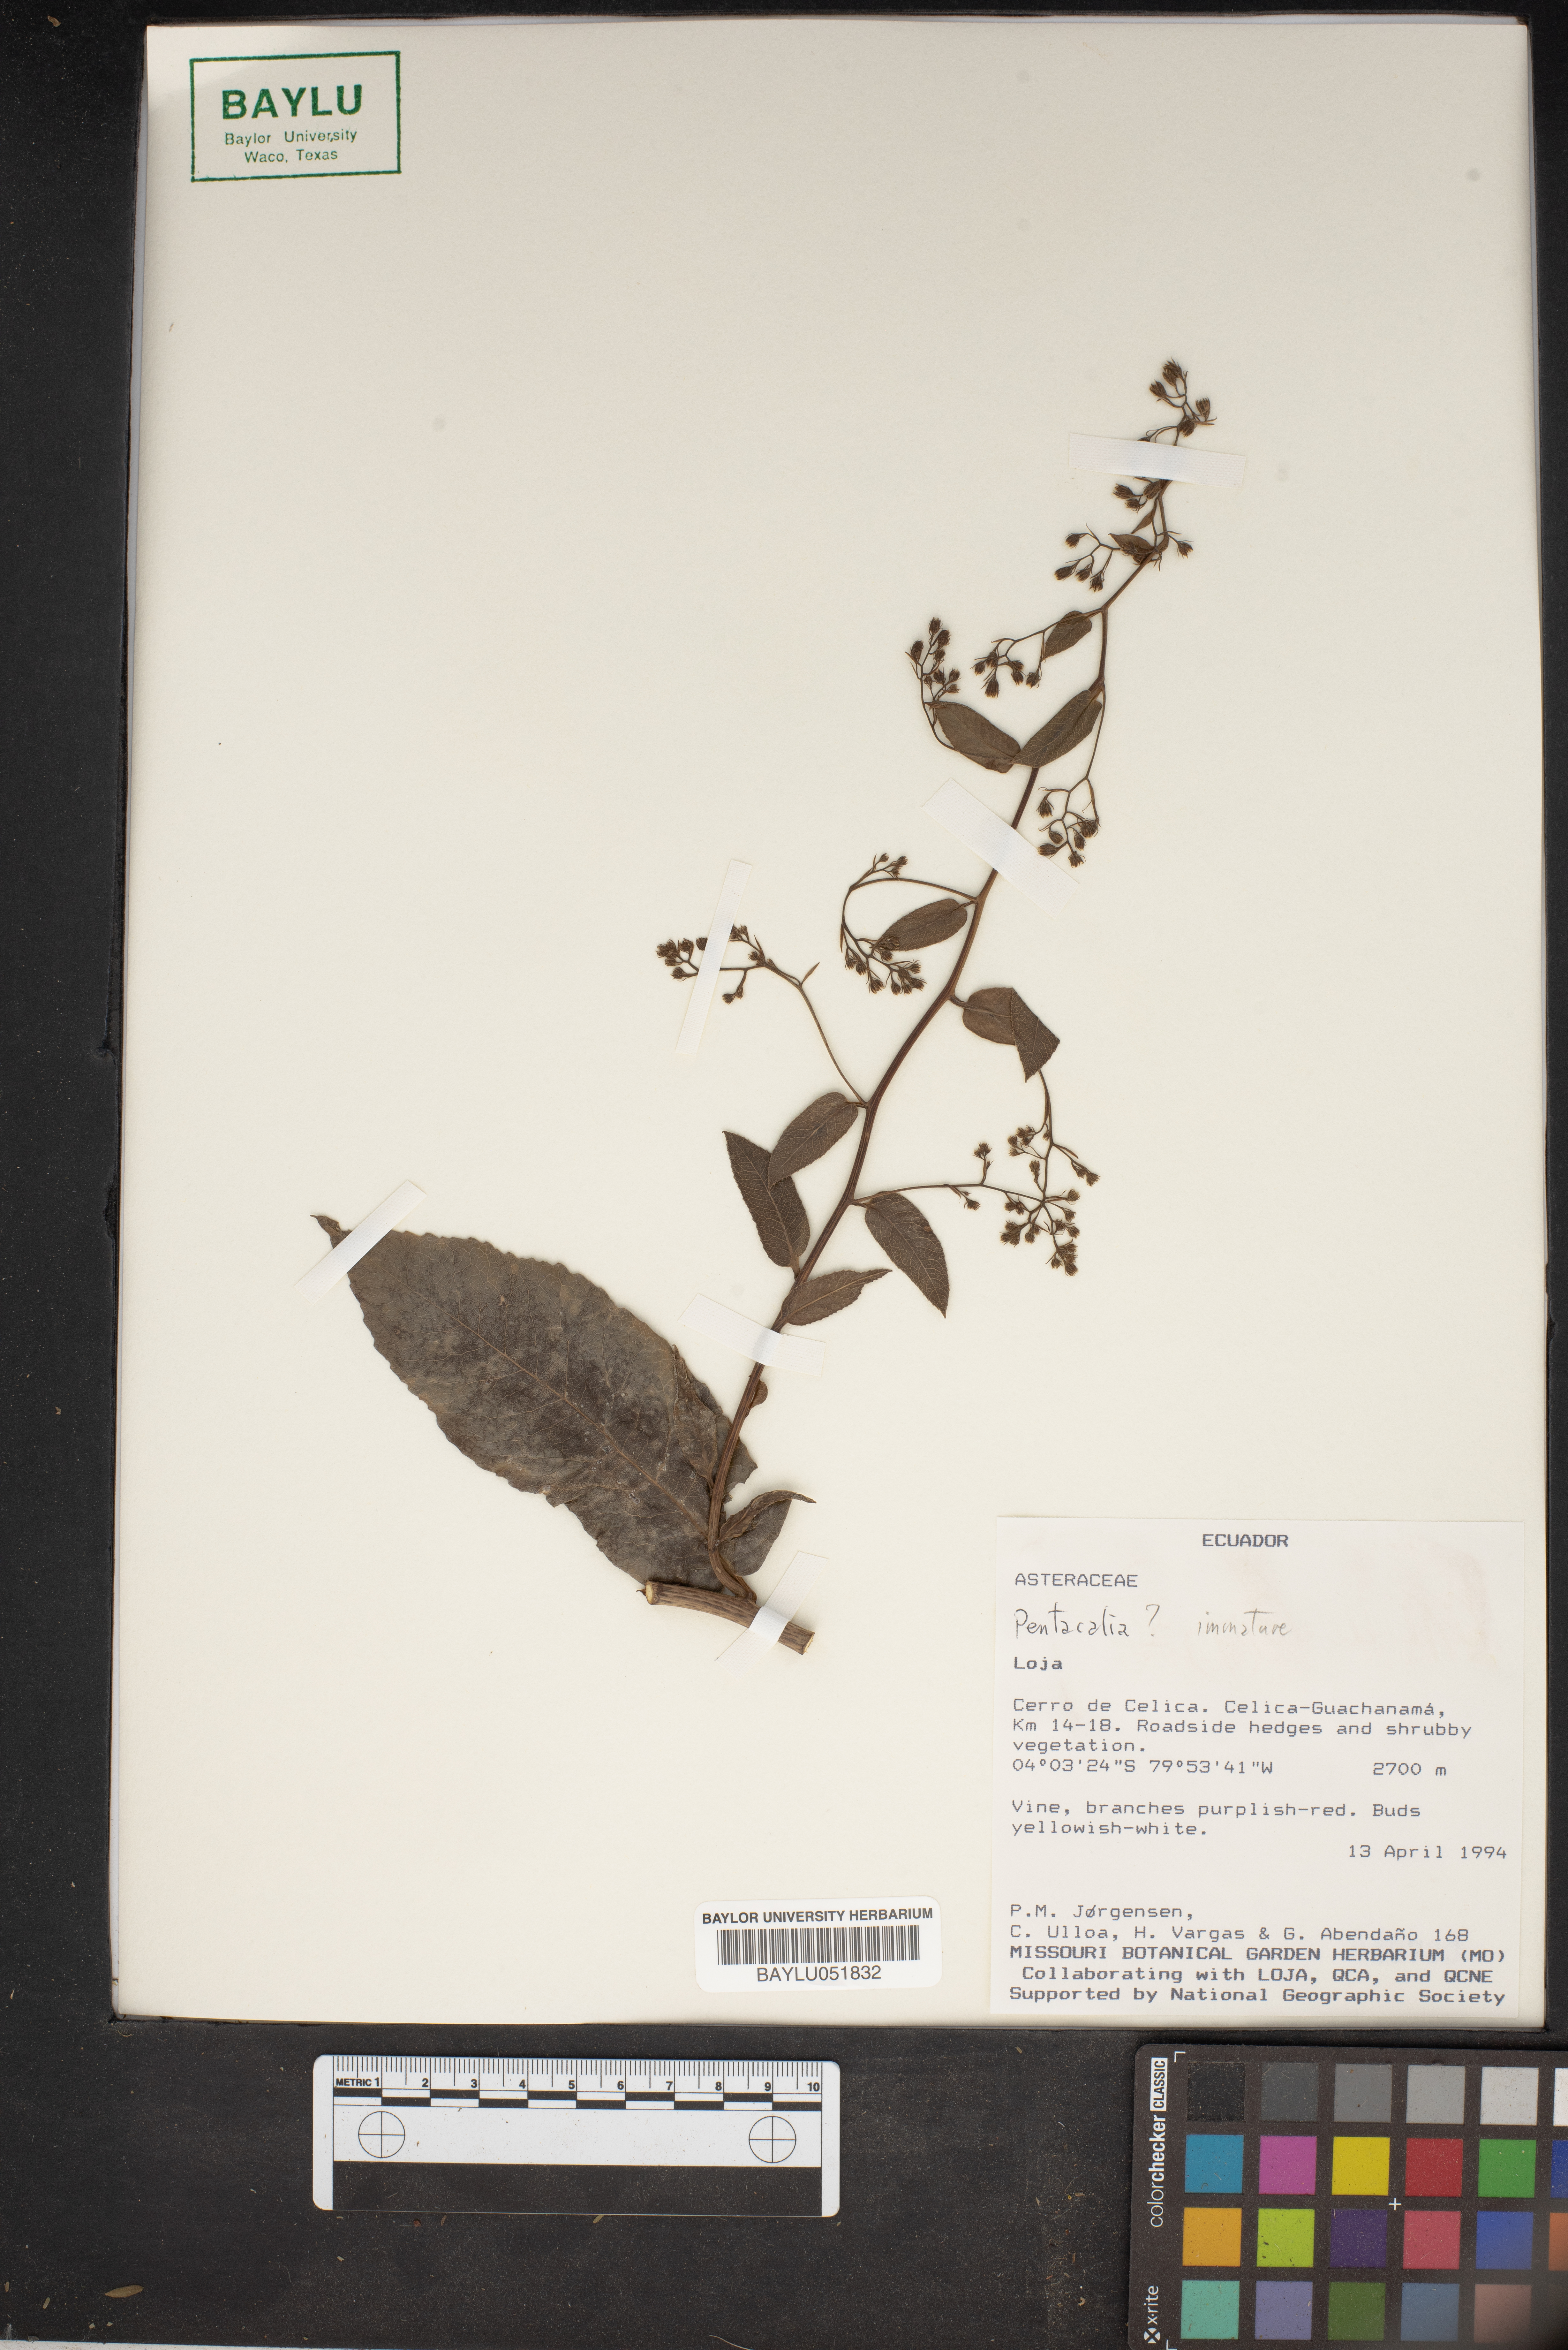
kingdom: Plantae
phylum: Tracheophyta
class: Magnoliopsida
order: Asterales
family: Asteraceae
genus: Pentacalia
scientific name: Pentacalia
